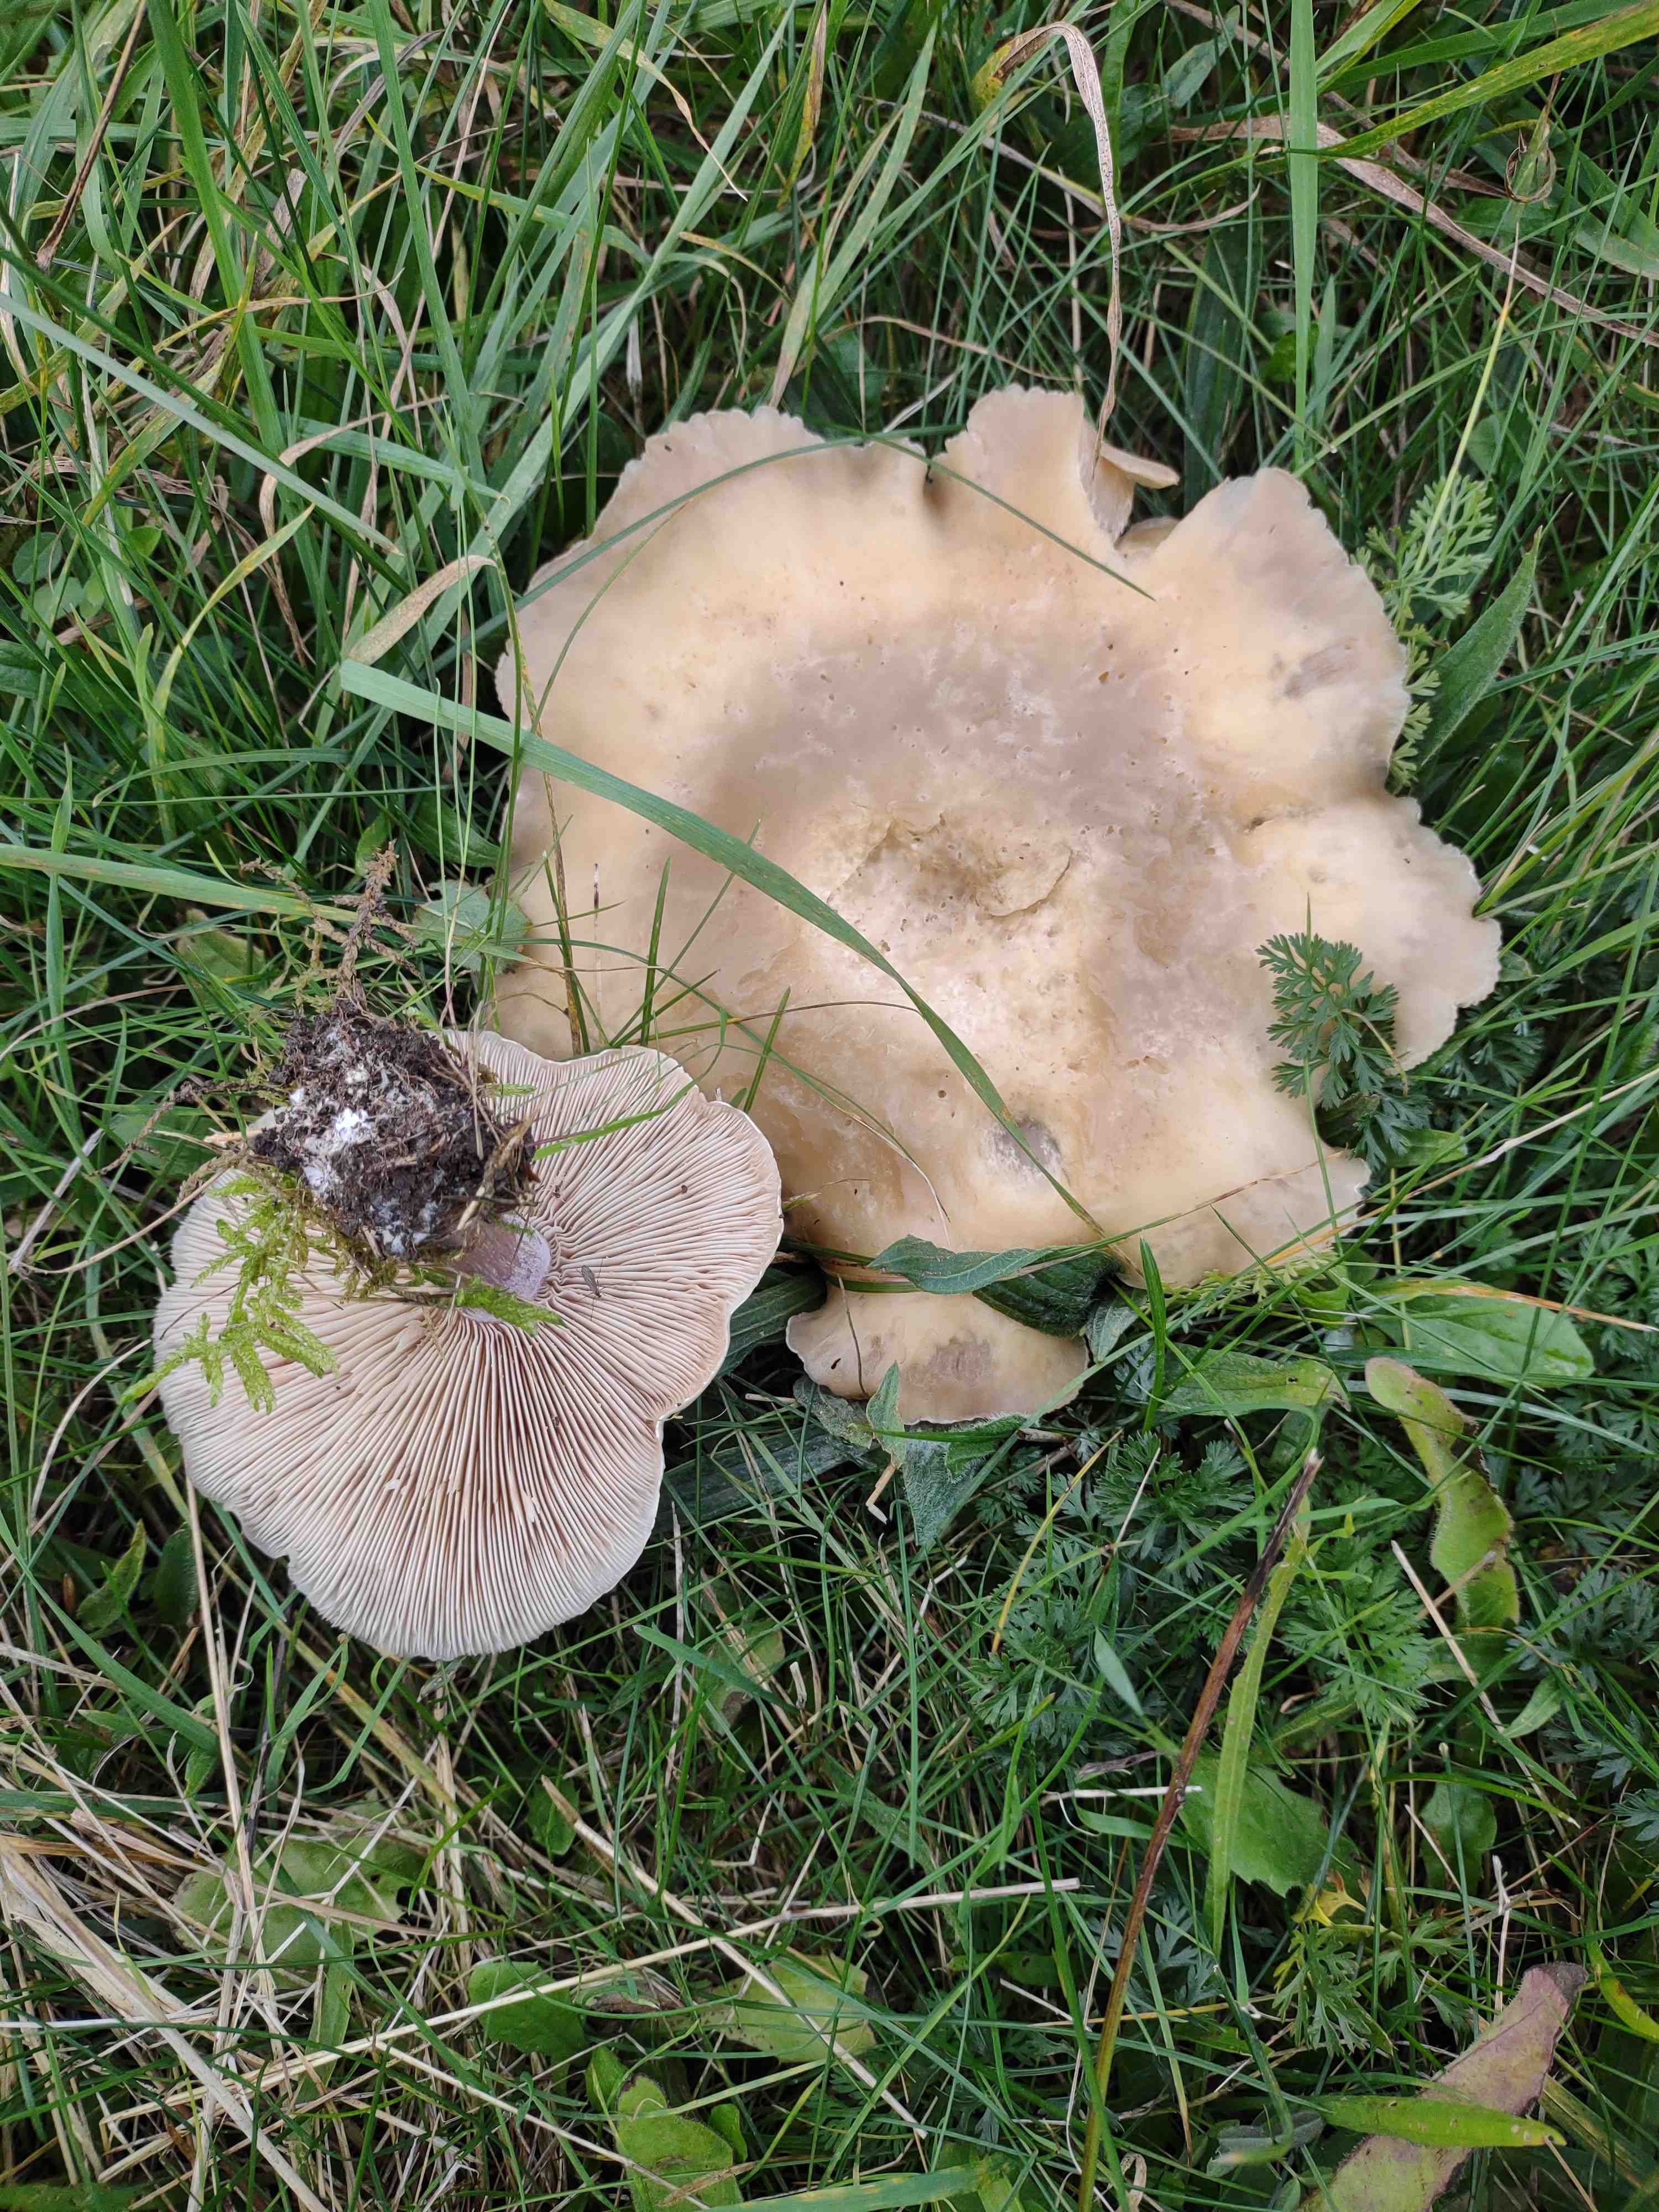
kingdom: Fungi
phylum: Basidiomycota
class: Agaricomycetes
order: Agaricales
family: Tricholomataceae
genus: Lepista
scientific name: Lepista personata
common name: bleg hekseringshat
